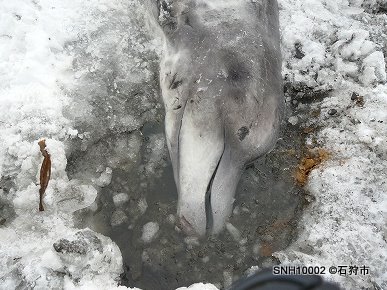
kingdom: Animalia
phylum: Chordata
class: Mammalia
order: Cetacea
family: Hyperoodontidae
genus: Berardius
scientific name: Berardius bairdii
